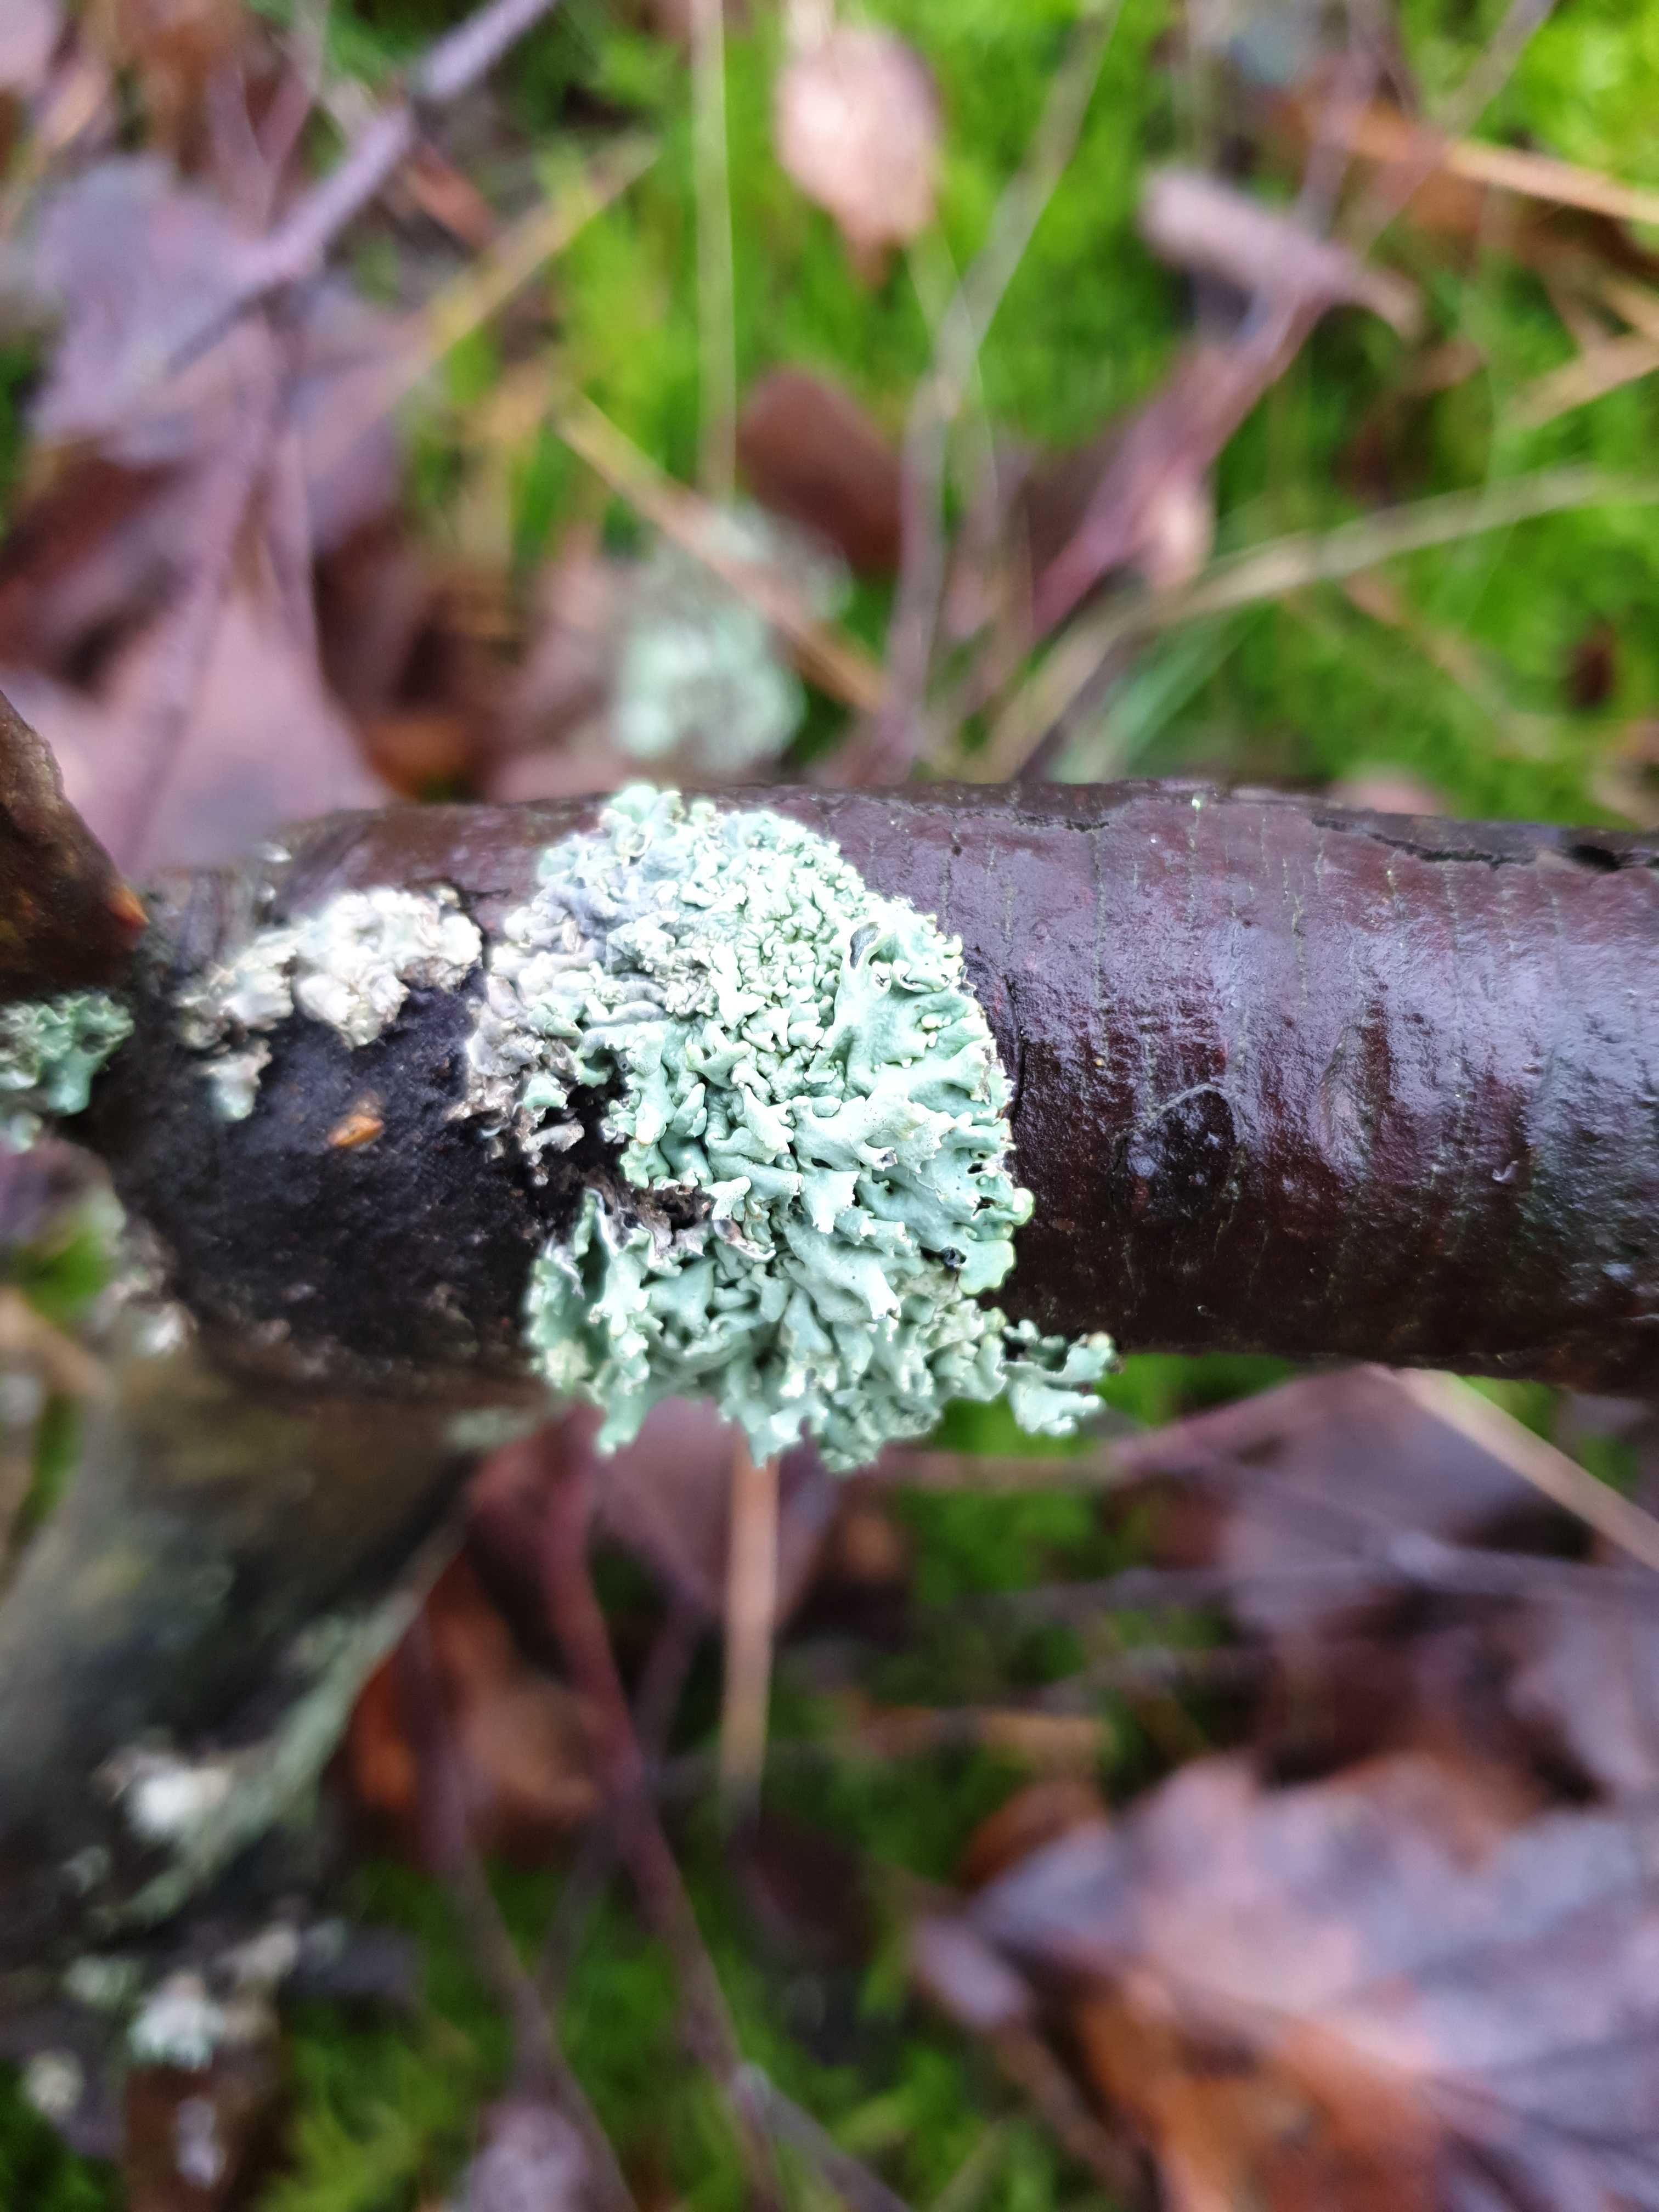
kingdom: Fungi
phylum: Ascomycota
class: Lecanoromycetes
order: Lecanorales
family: Parmeliaceae
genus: Hypogymnia
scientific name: Hypogymnia physodes
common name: almindelig kvistlav
